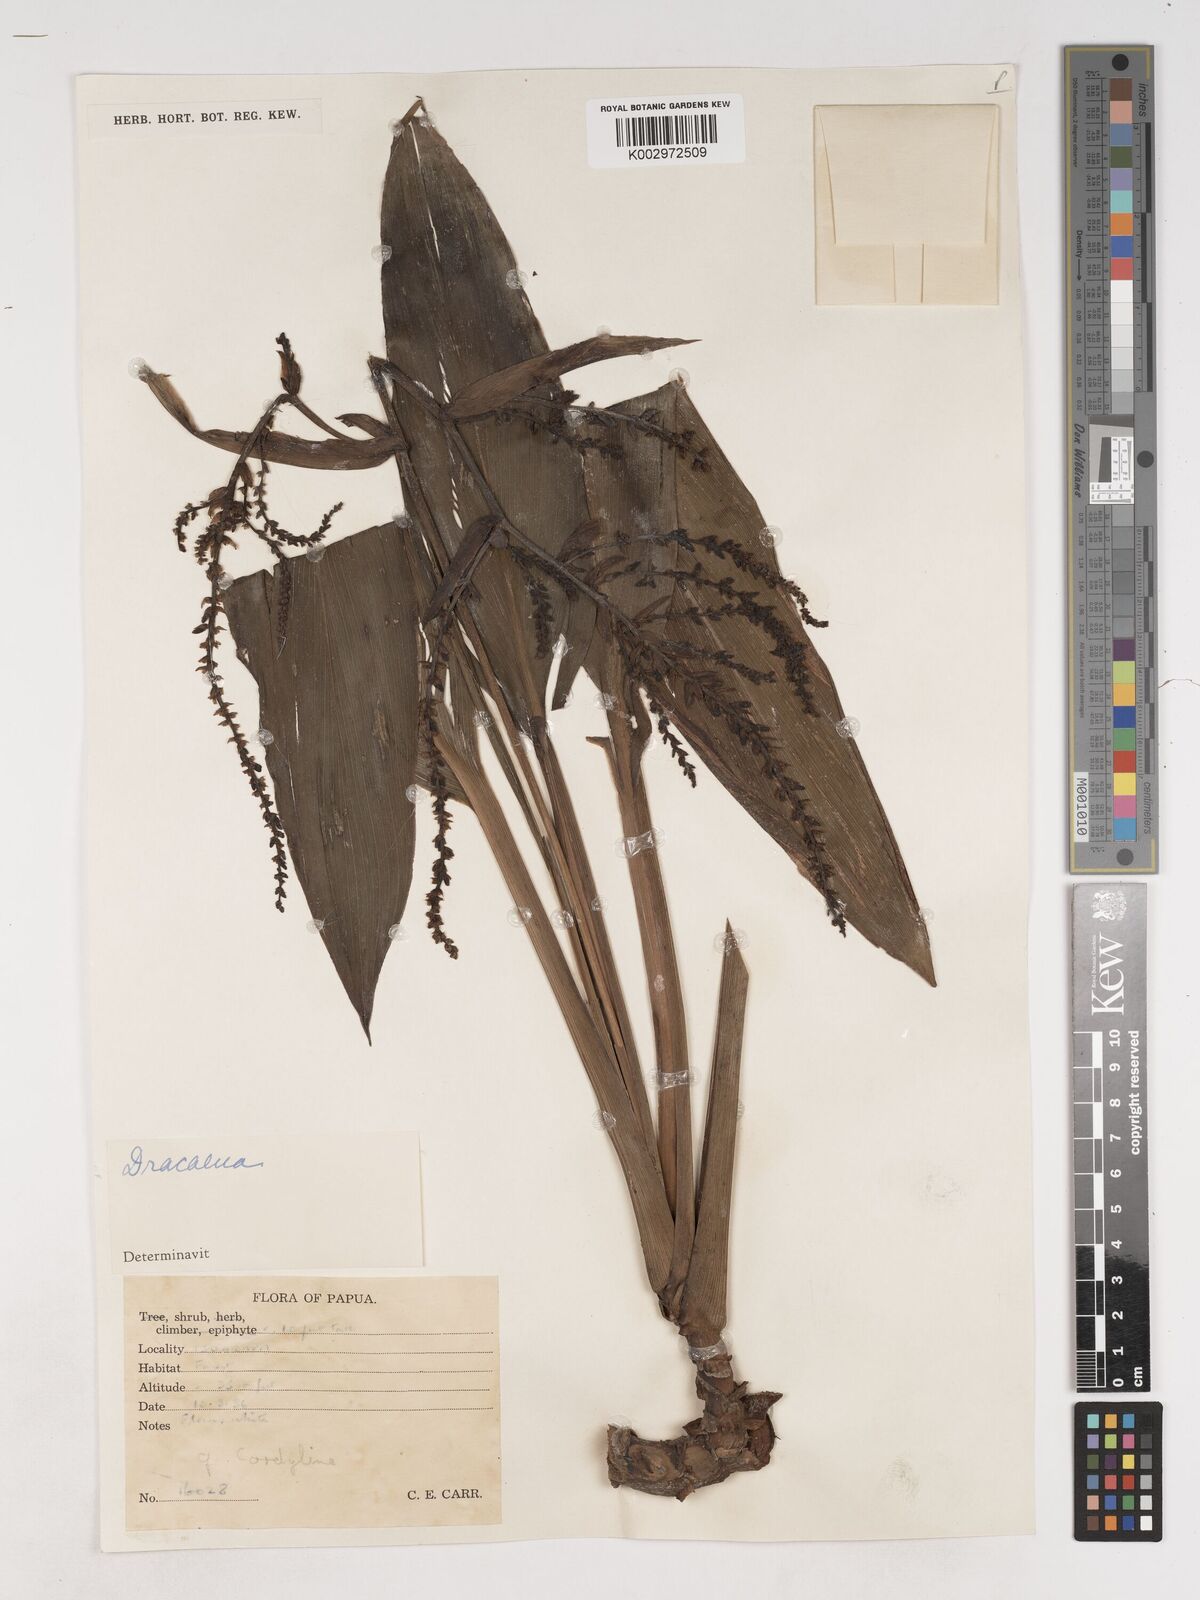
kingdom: Plantae
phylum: Tracheophyta
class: Liliopsida
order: Asparagales
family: Asparagaceae
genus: Cordyline
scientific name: Cordyline
